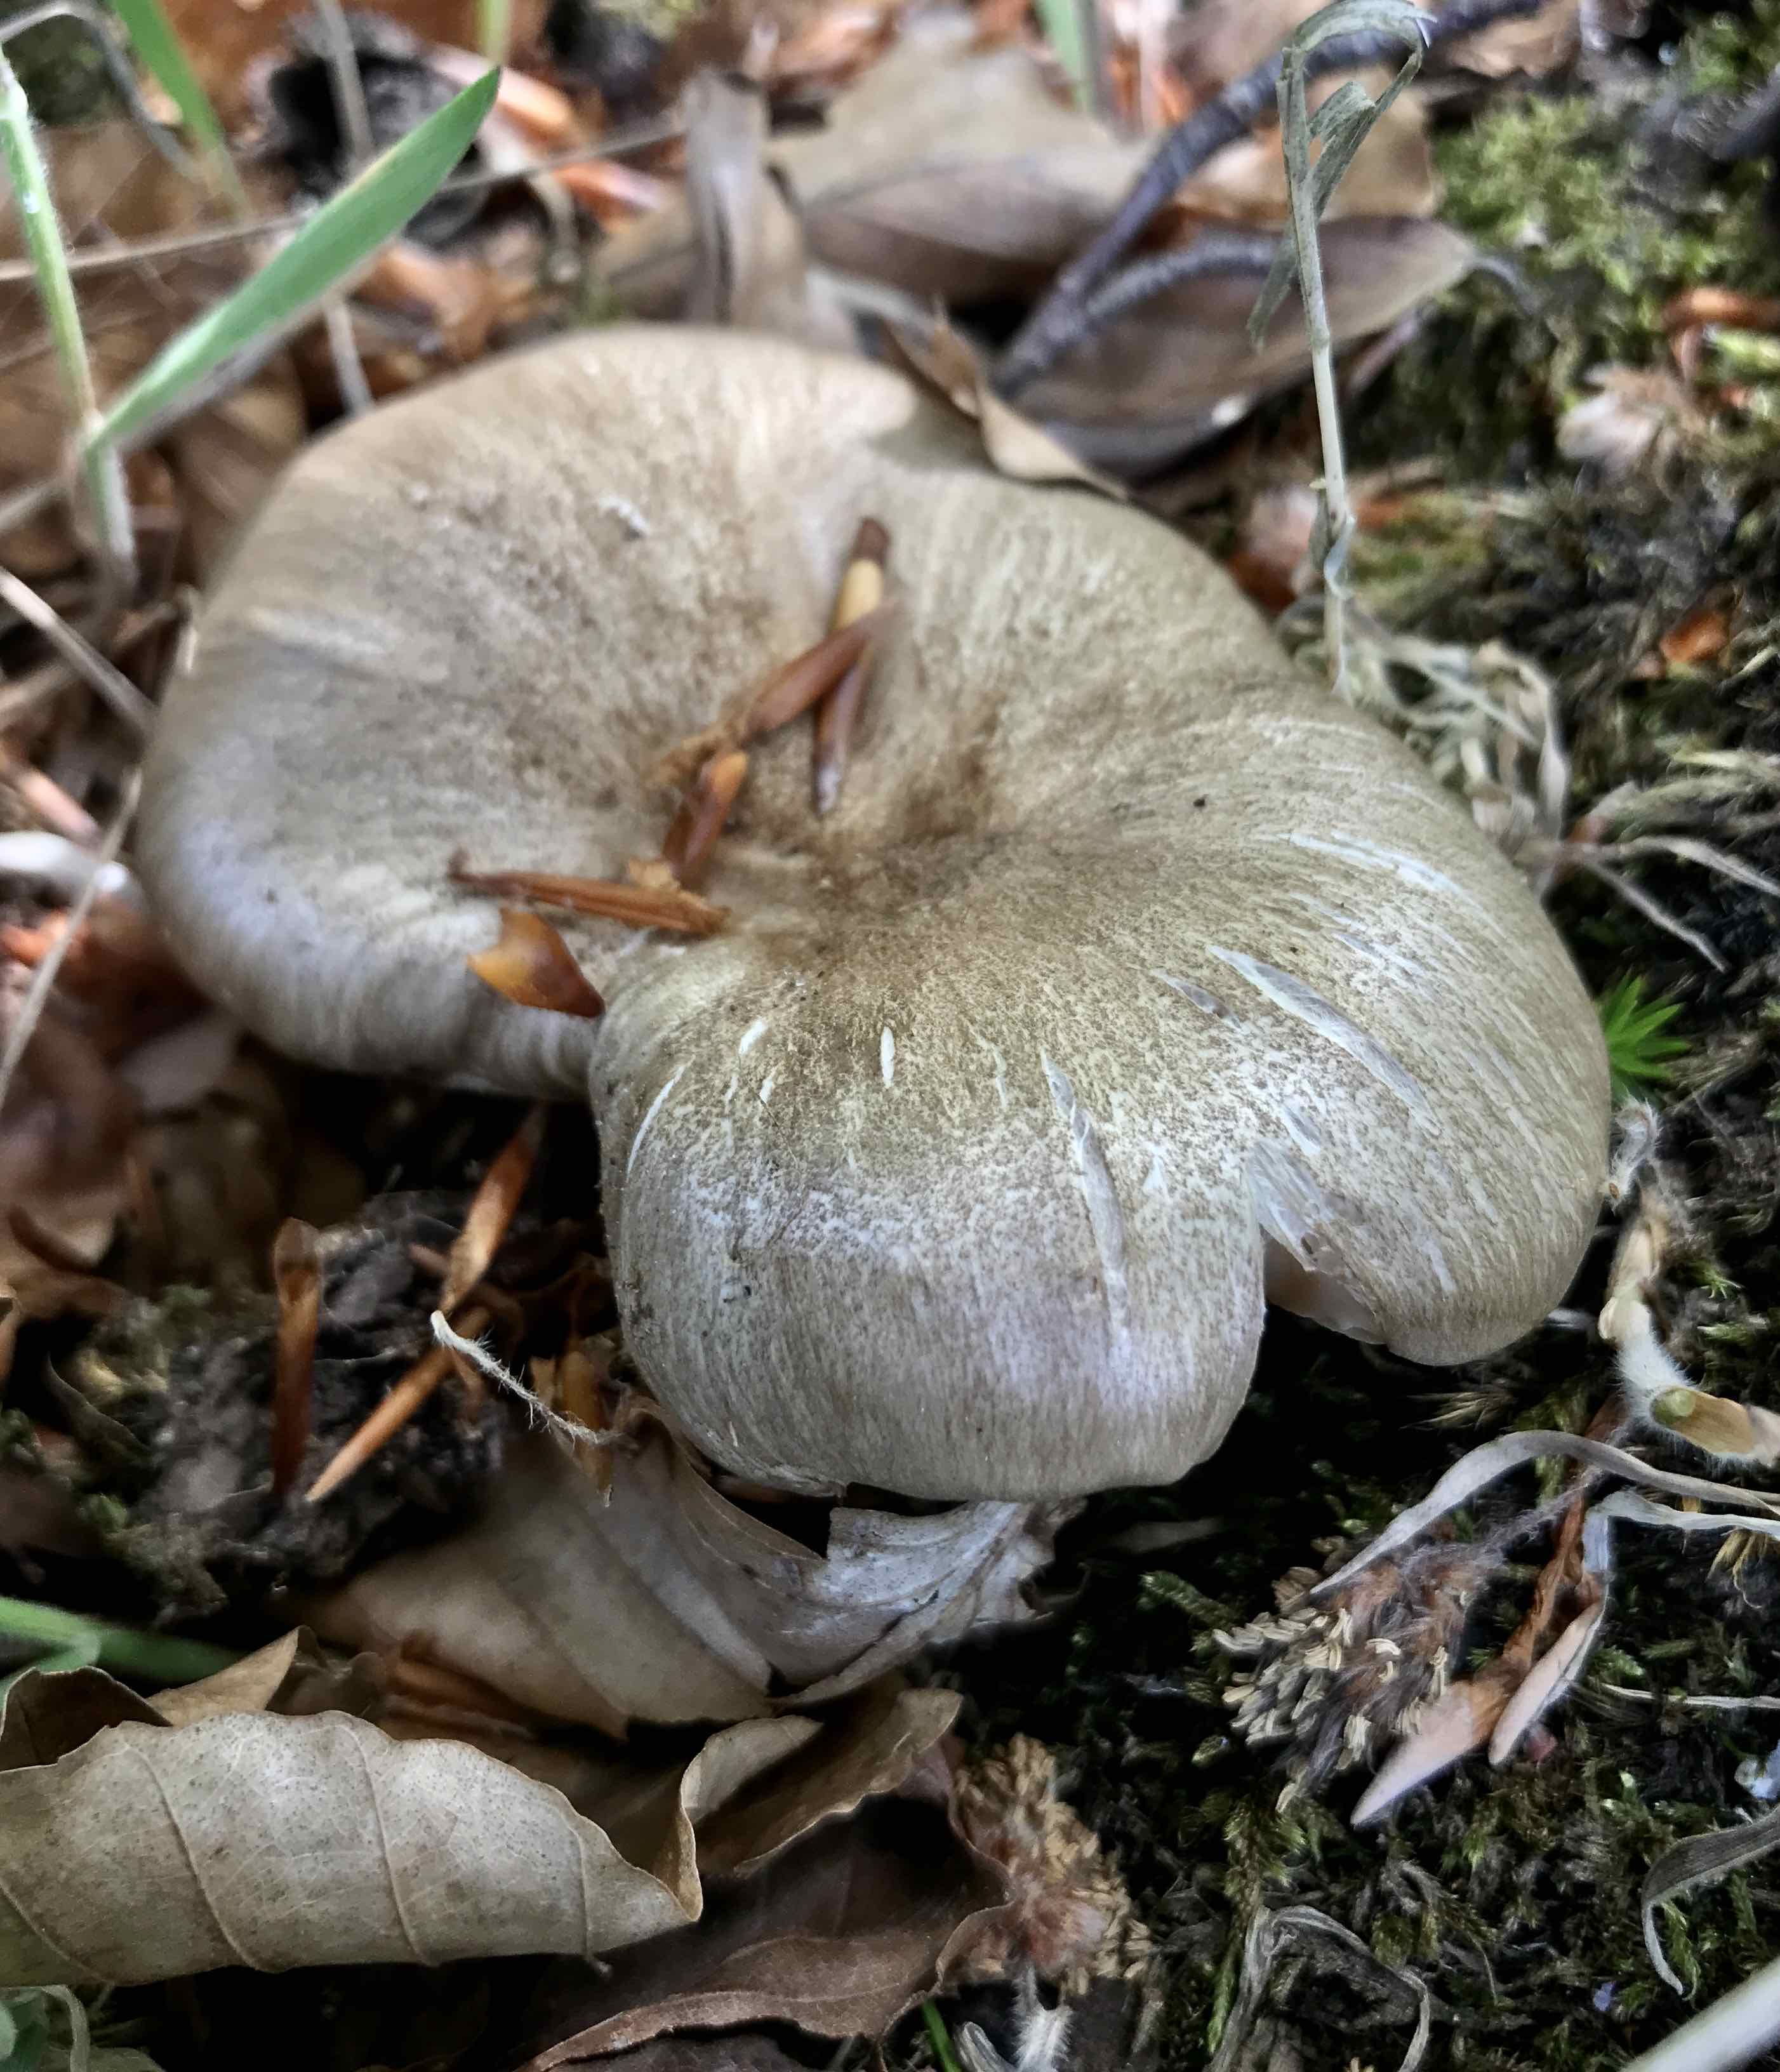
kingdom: Fungi
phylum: Basidiomycota
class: Agaricomycetes
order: Agaricales
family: Tricholomataceae
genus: Megacollybia
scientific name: Megacollybia platyphylla
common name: bredbladet væbnerhat
